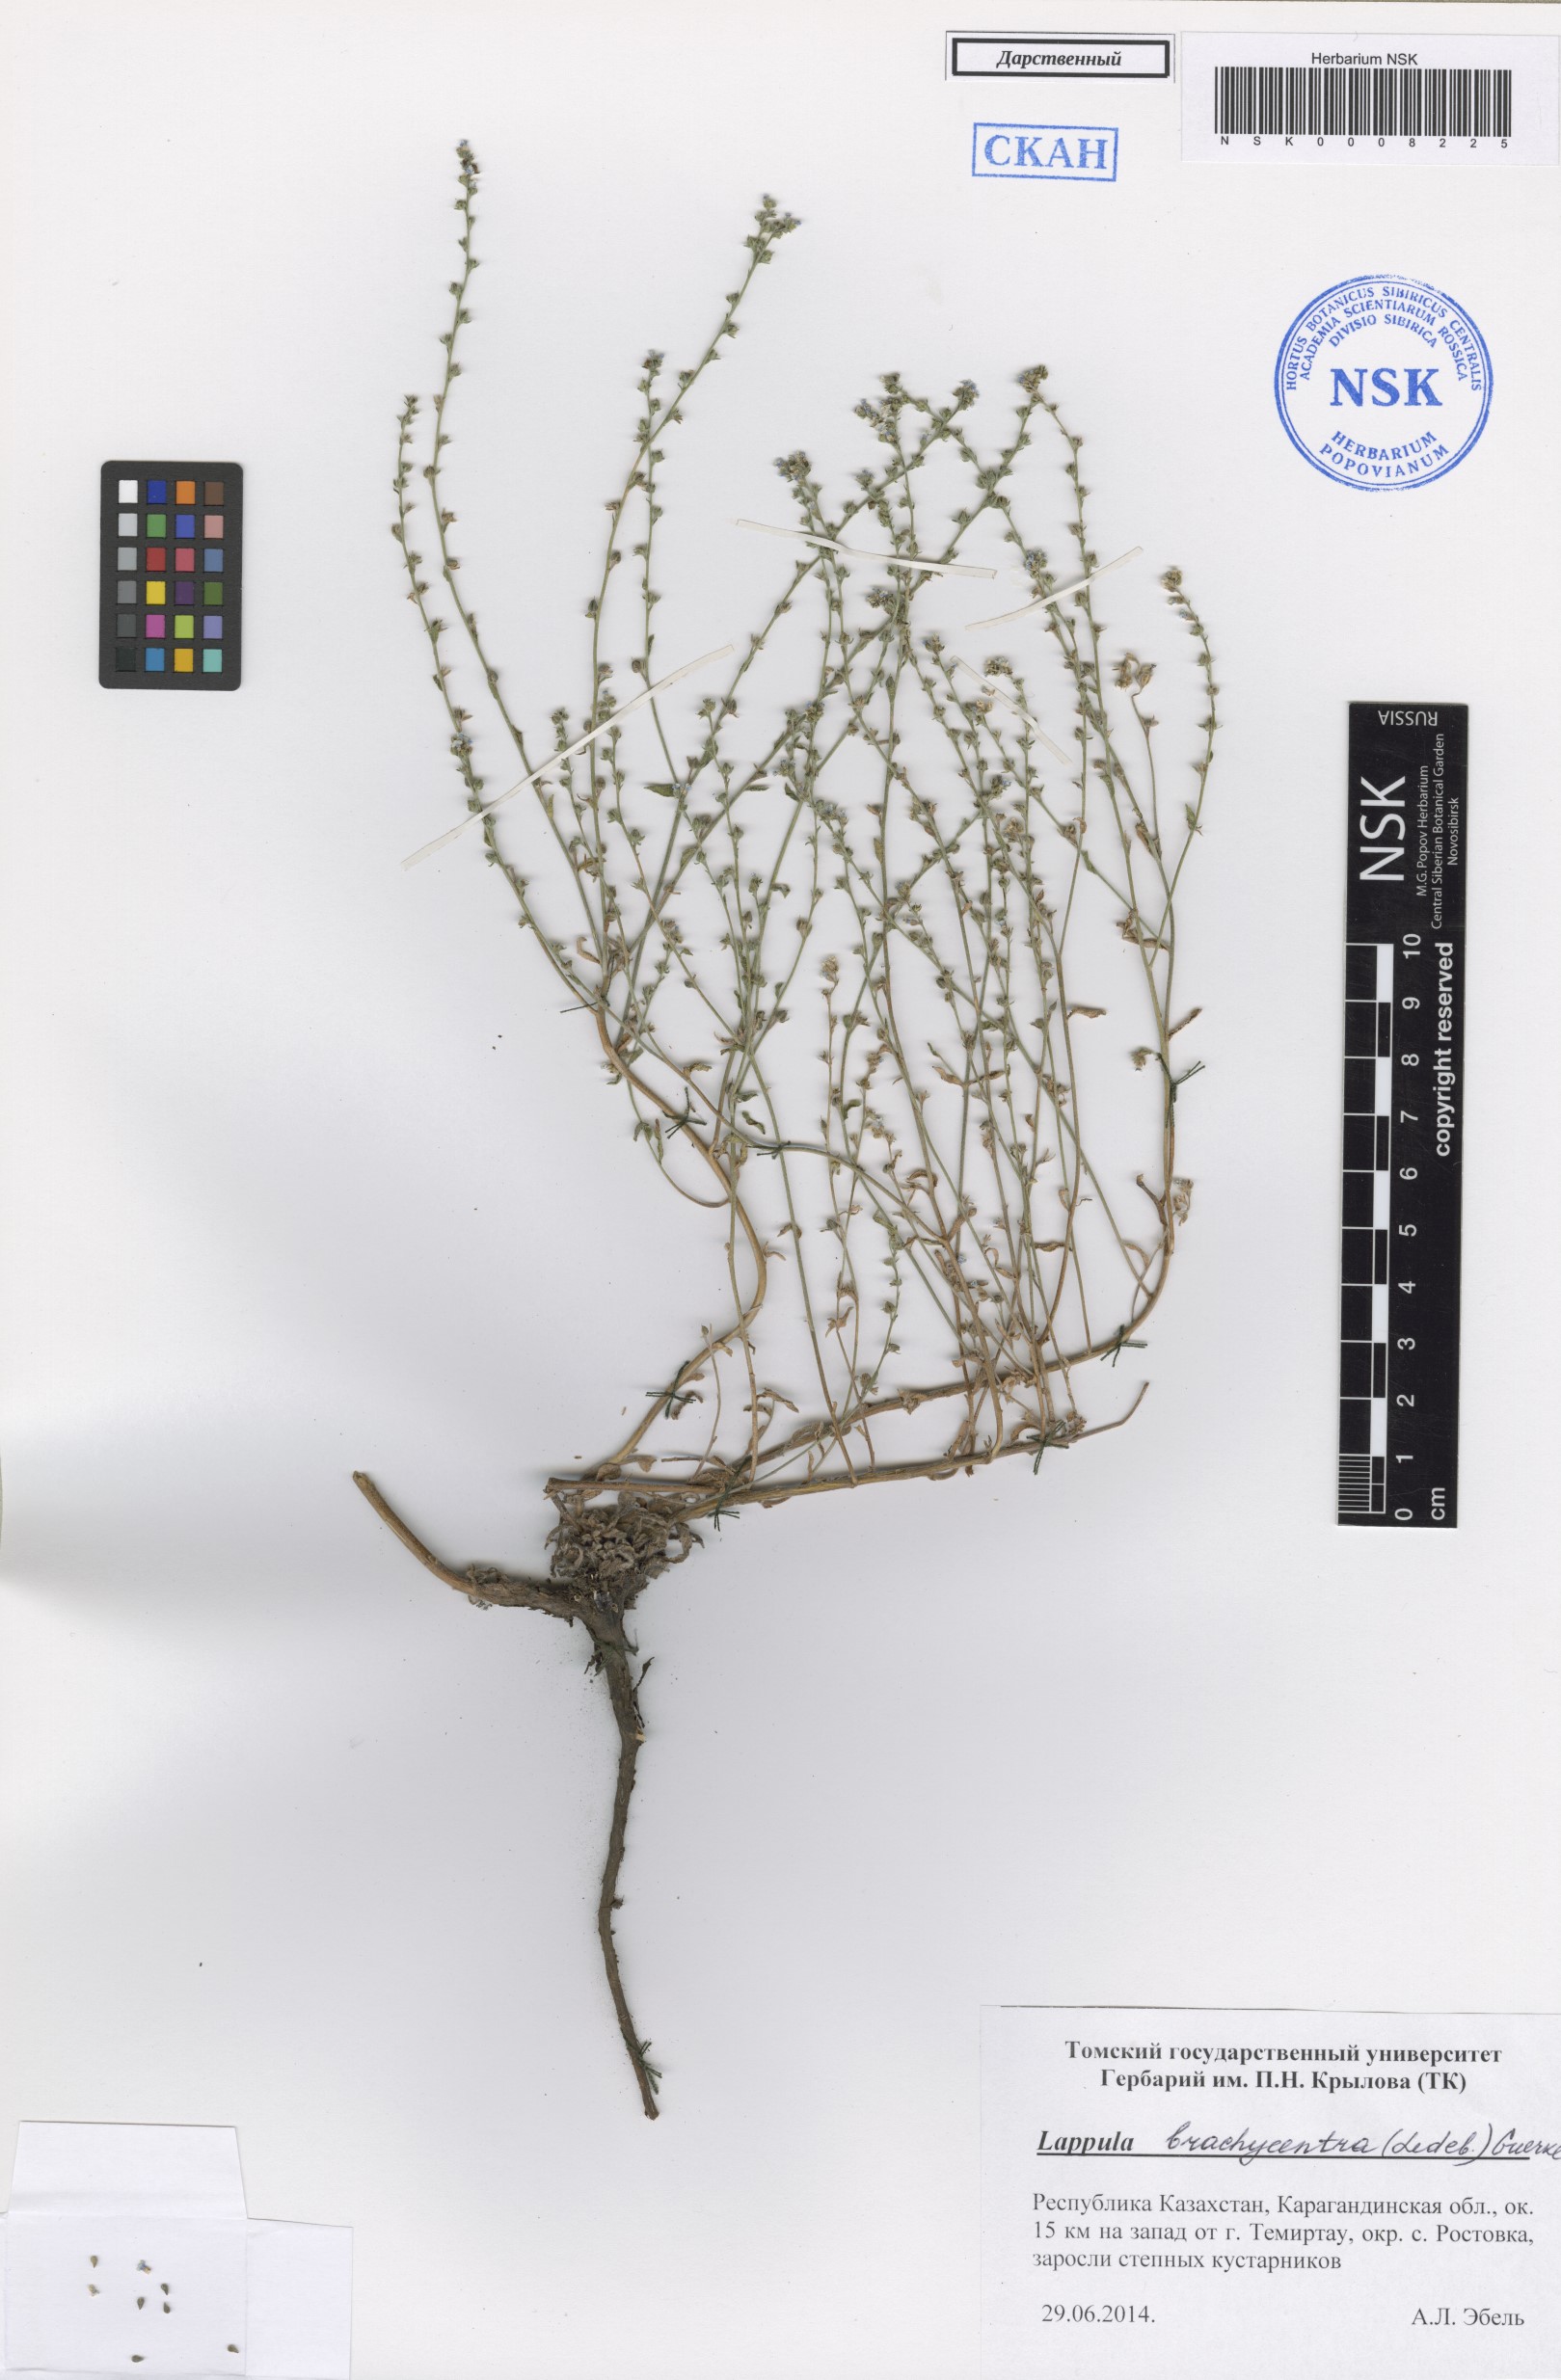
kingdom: Plantae
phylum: Tracheophyta
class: Magnoliopsida
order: Boraginales
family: Boraginaceae
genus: Lappula
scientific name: Lappula brachycentra
